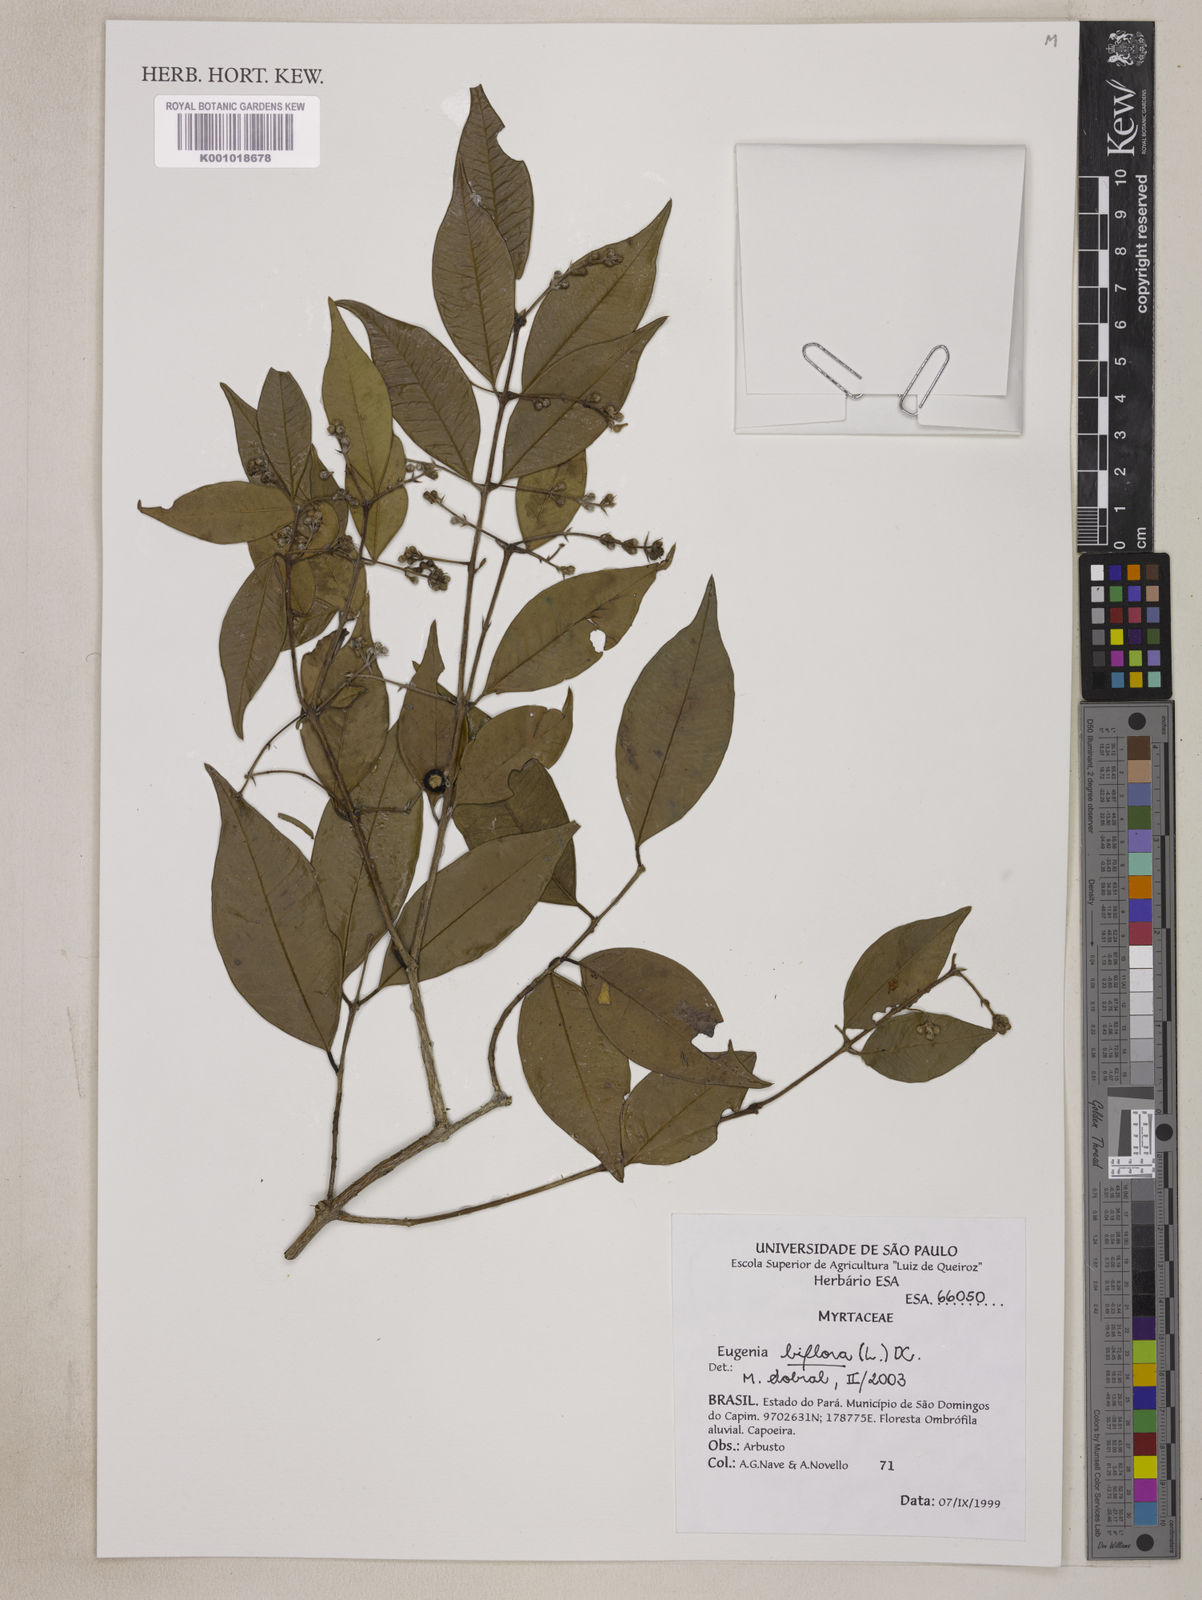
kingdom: Plantae
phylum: Tracheophyta
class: Magnoliopsida
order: Myrtales
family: Myrtaceae
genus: Eugenia
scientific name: Eugenia biflora
